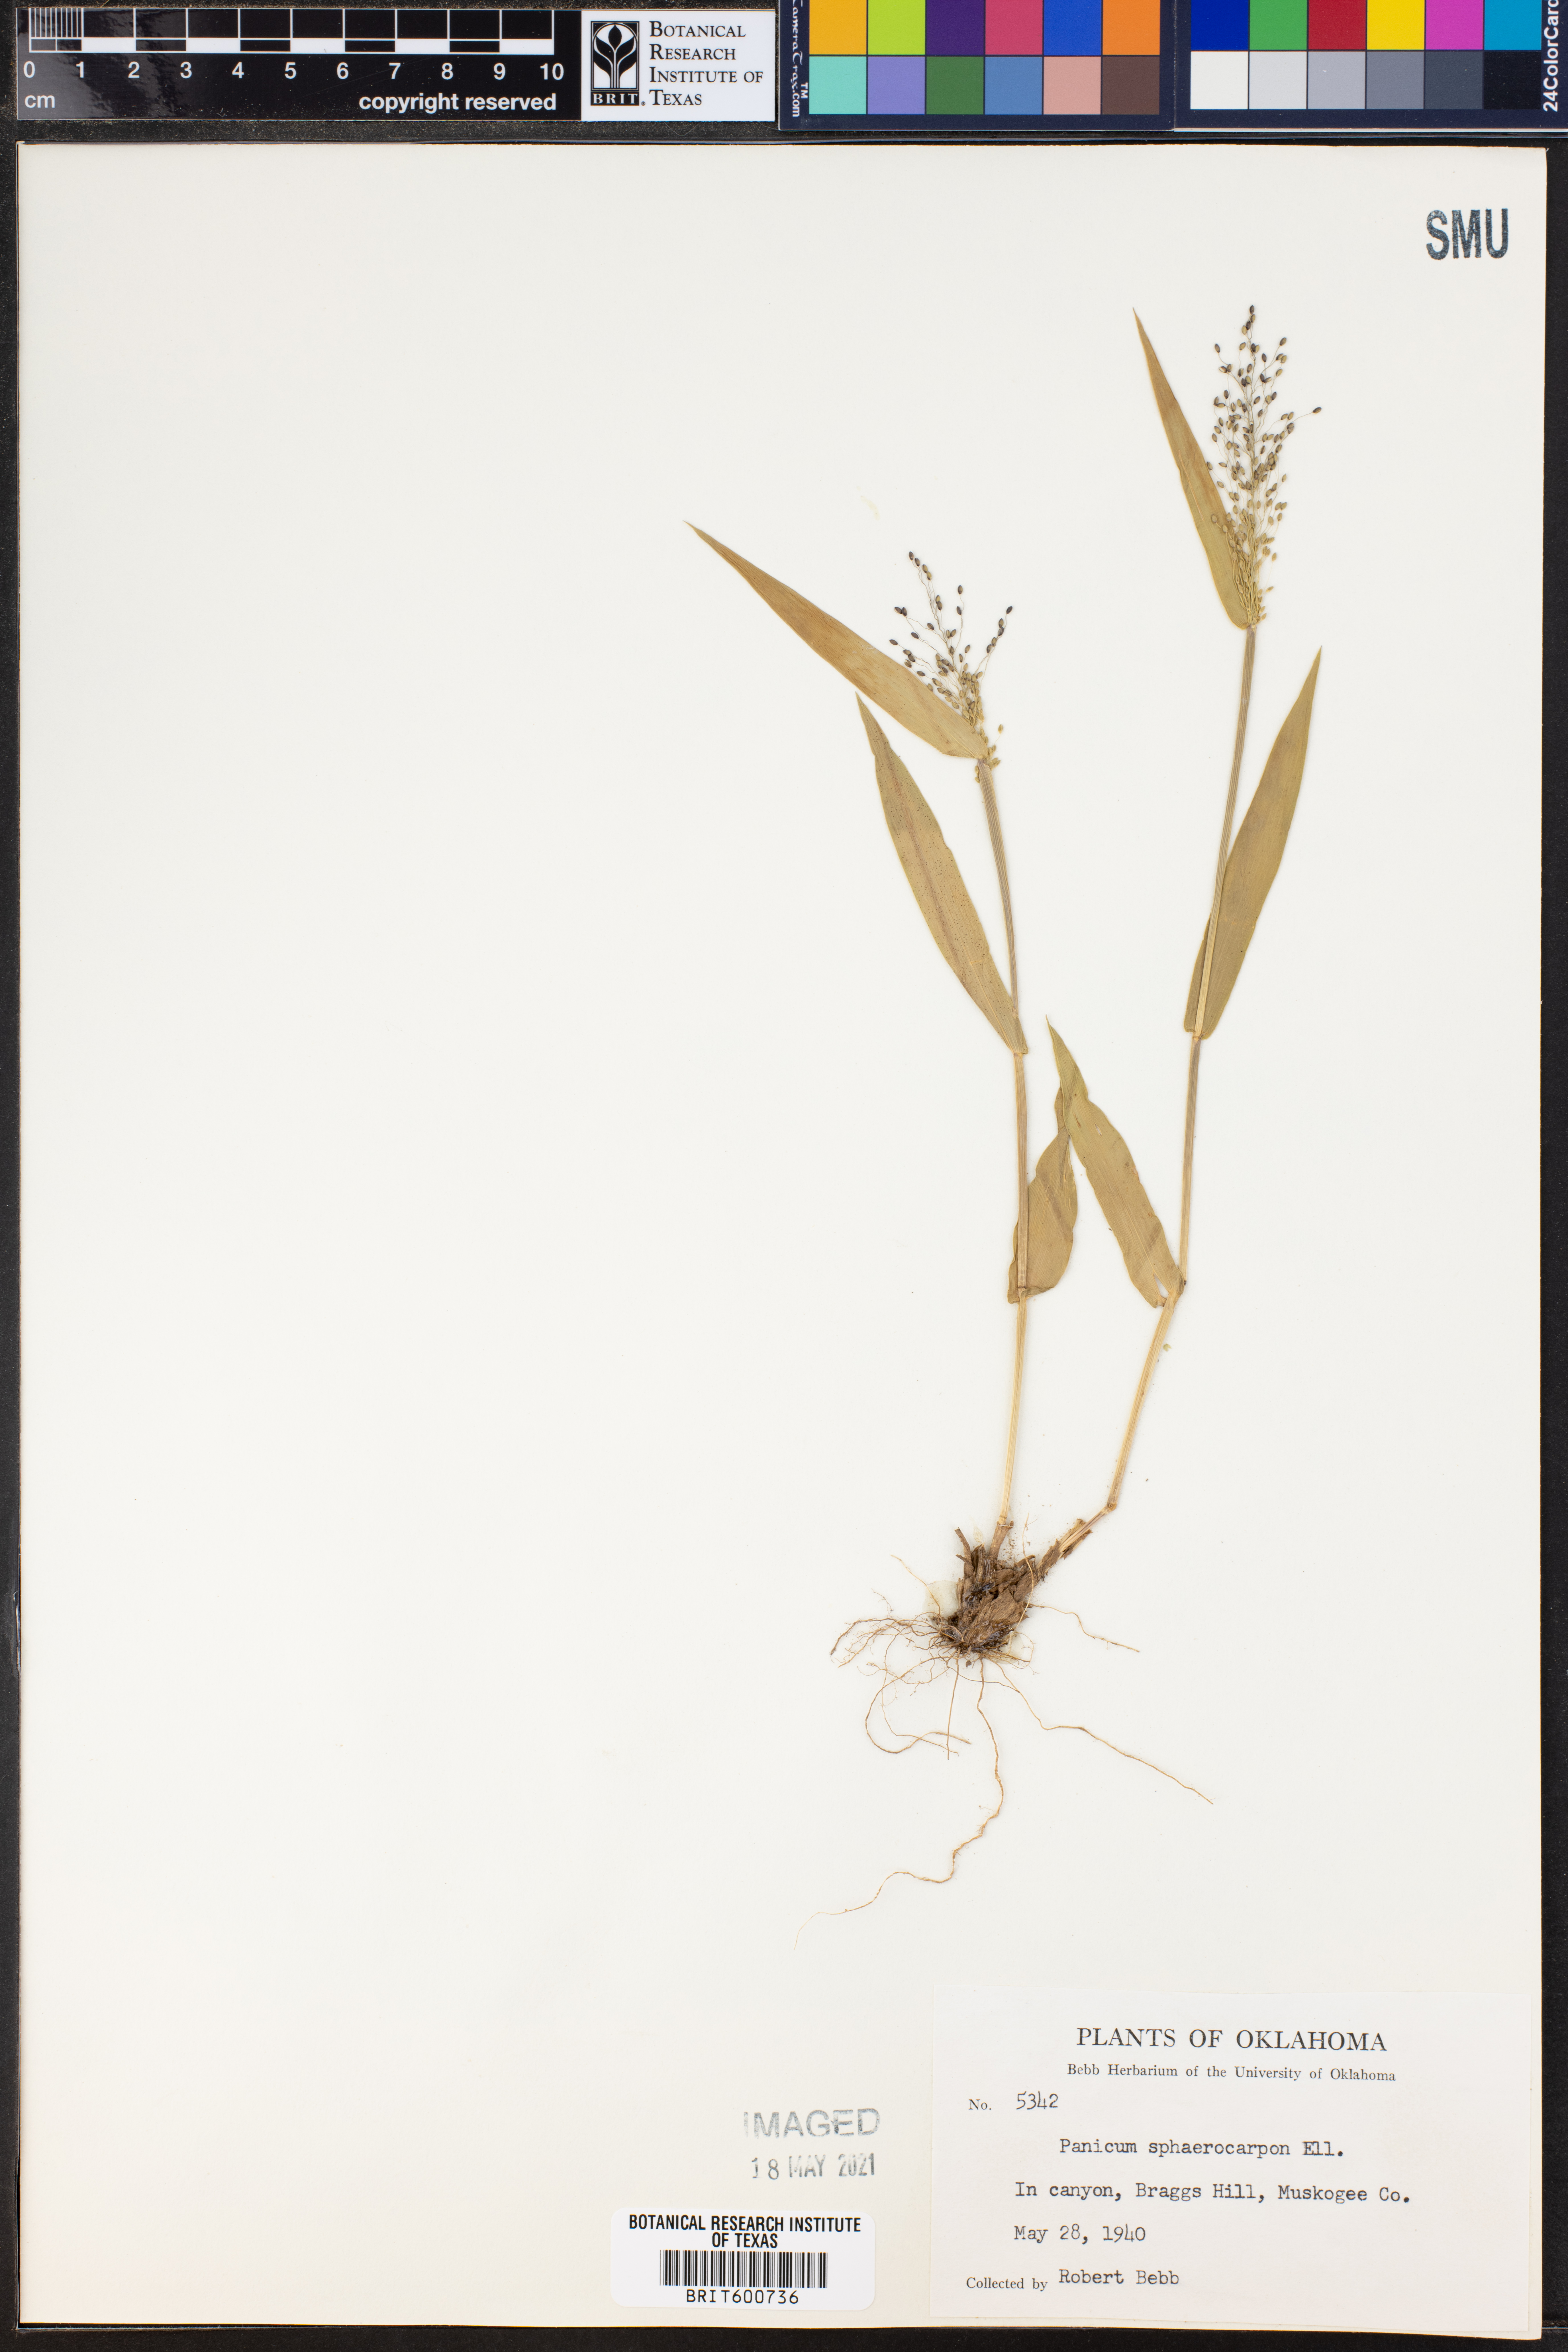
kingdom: Plantae
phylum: Tracheophyta
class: Liliopsida
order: Poales
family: Poaceae
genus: Dichanthelium
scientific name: Dichanthelium sphaerocarpon
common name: Round-fruited panicgrass
